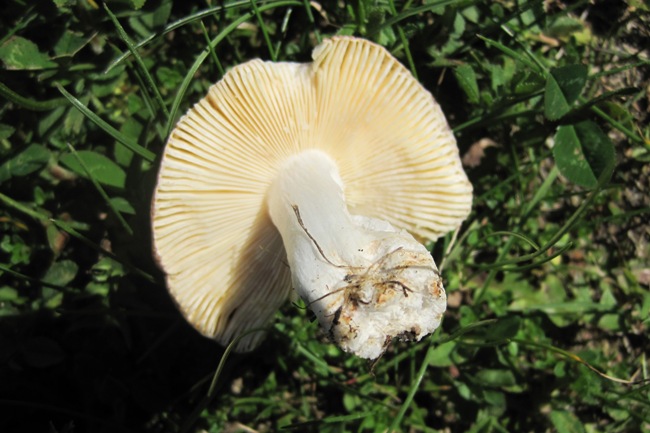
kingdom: Fungi
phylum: Basidiomycota
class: Agaricomycetes
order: Russulales
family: Russulaceae
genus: Russula
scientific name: Russula cessans
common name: fyrre-skørhat
